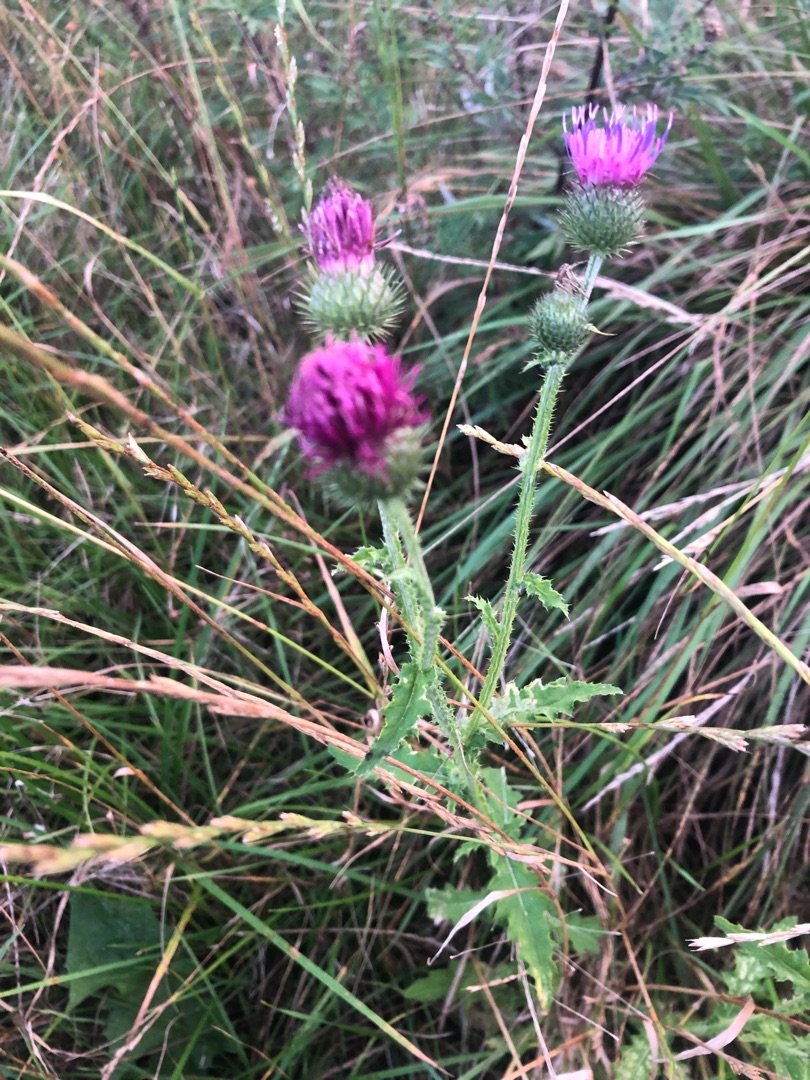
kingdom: Plantae
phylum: Tracheophyta
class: Magnoliopsida
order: Asterales
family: Asteraceae
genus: Carduus
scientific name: Carduus crispus
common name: Kruset tidsel
